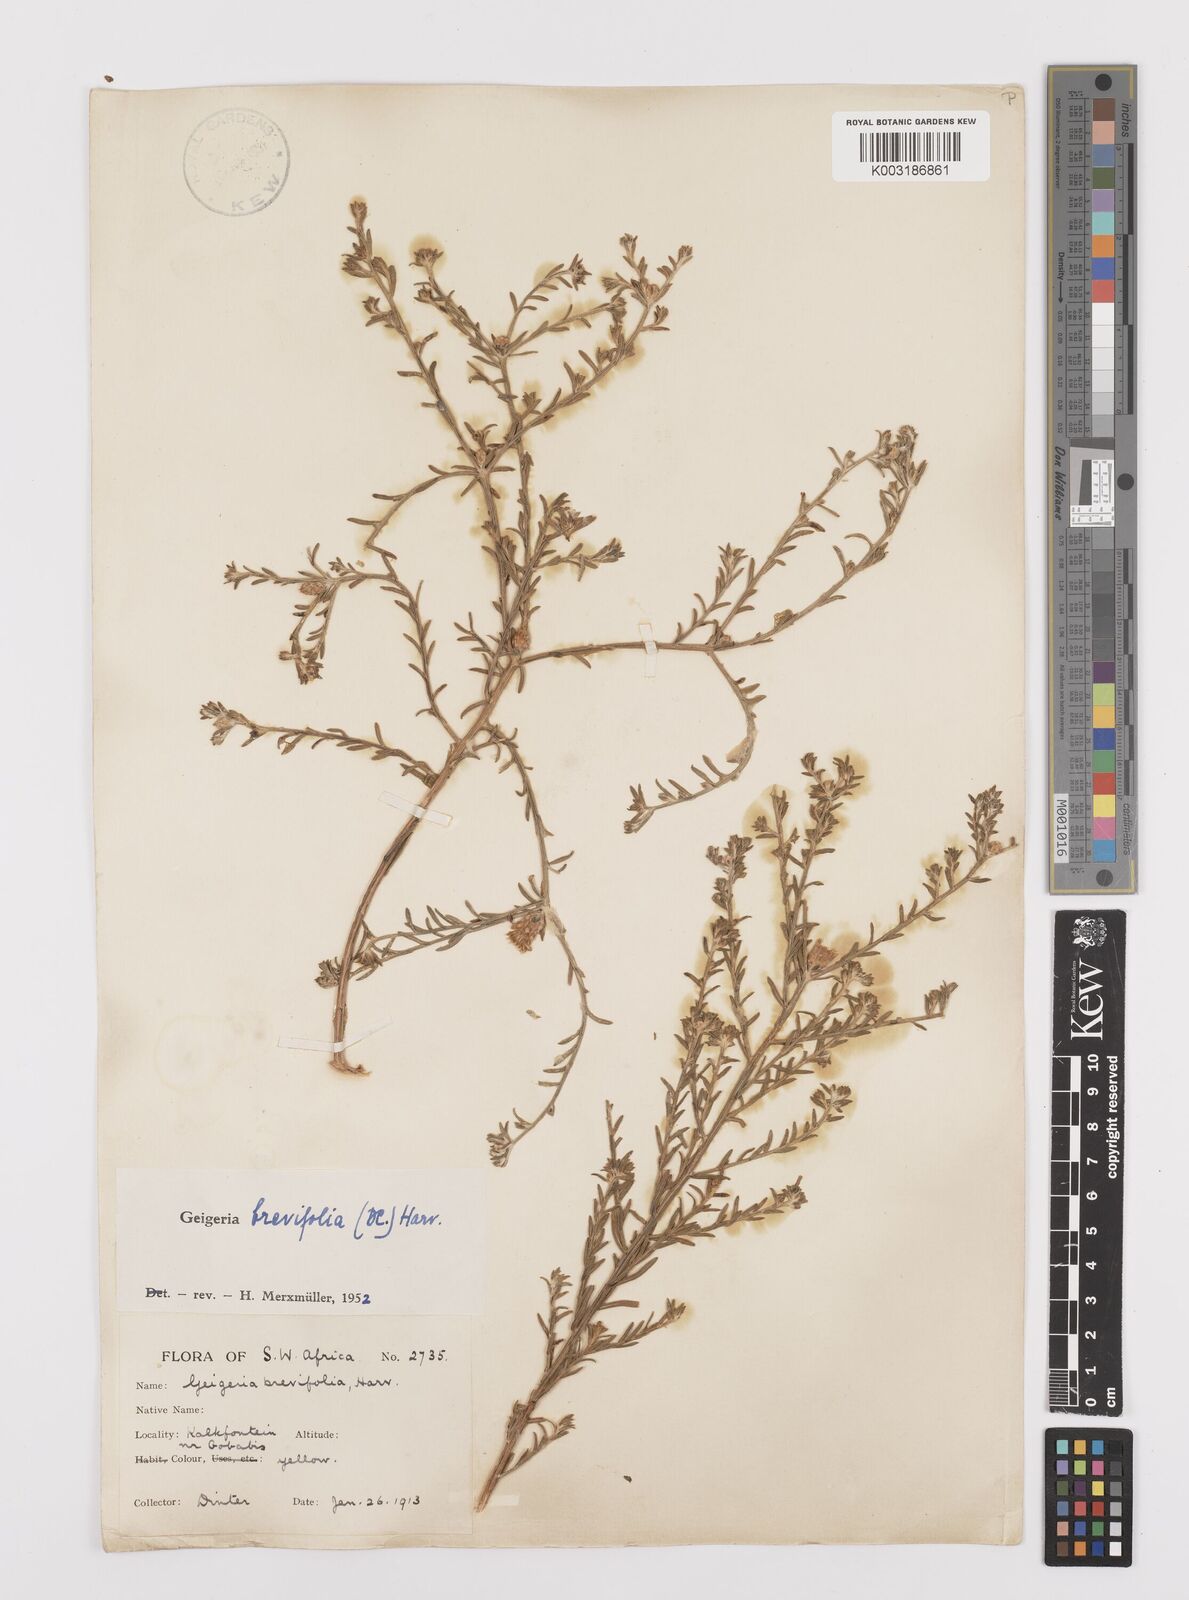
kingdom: Plantae
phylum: Tracheophyta
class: Magnoliopsida
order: Asterales
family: Asteraceae
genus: Geigeria
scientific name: Geigeria brevifolia
